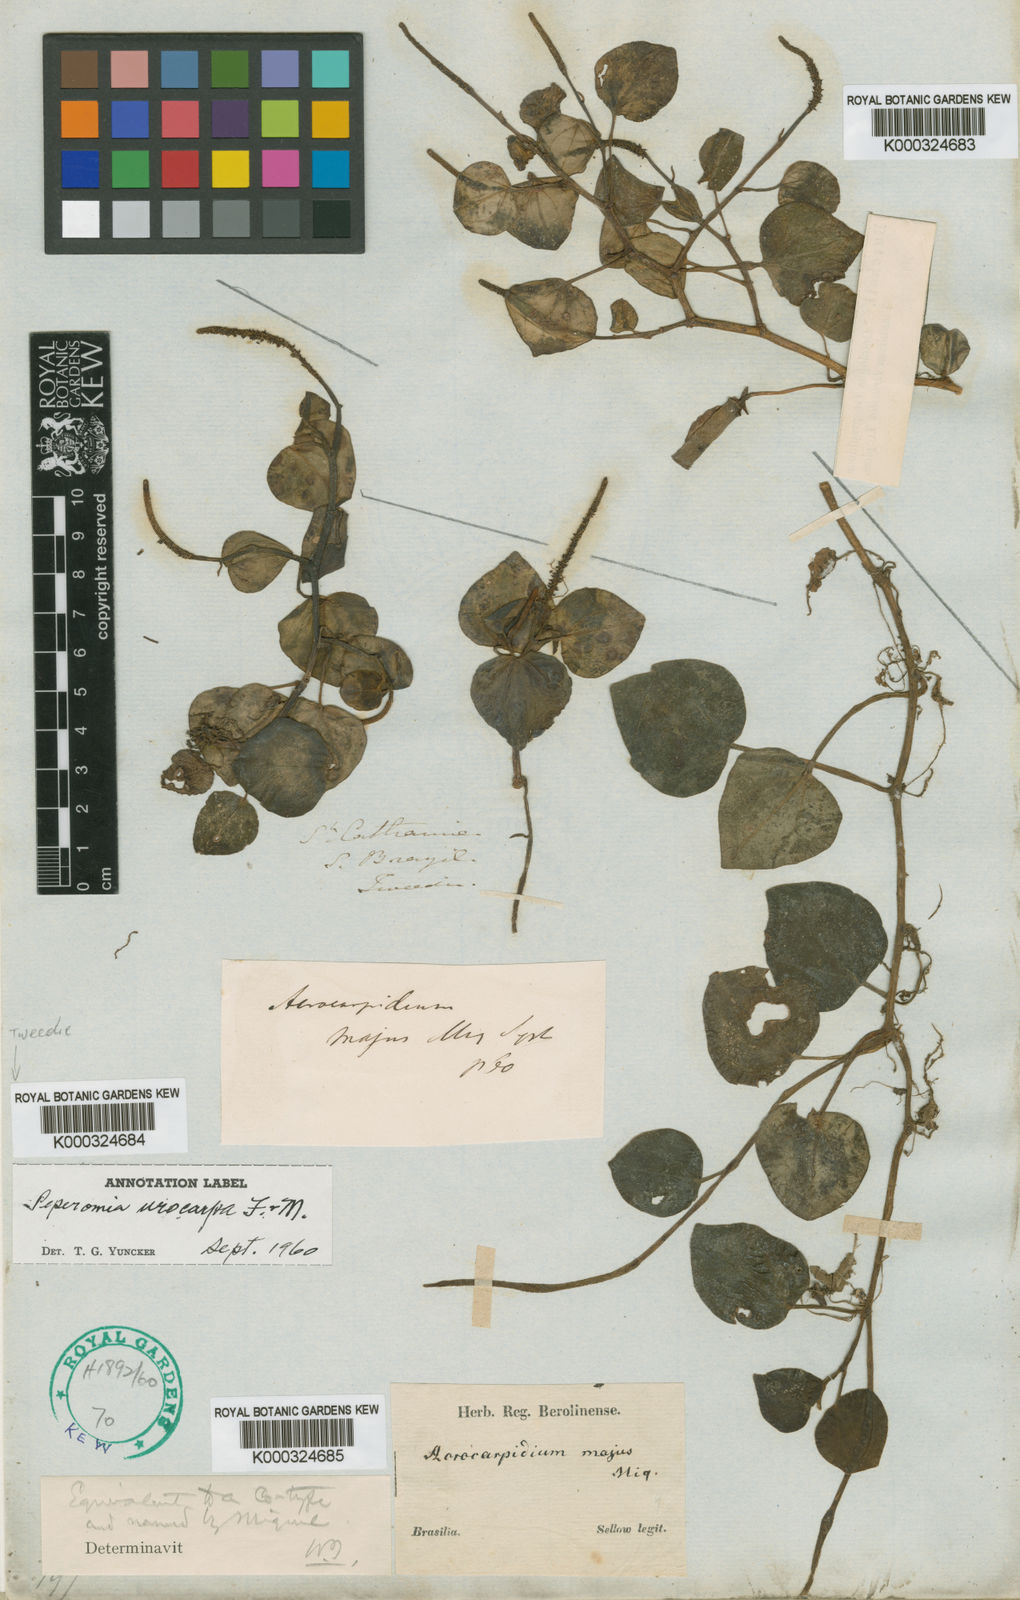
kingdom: Plantae
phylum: Tracheophyta
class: Magnoliopsida
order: Piperales
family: Piperaceae
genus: Peperomia
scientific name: Peperomia urocarpa
